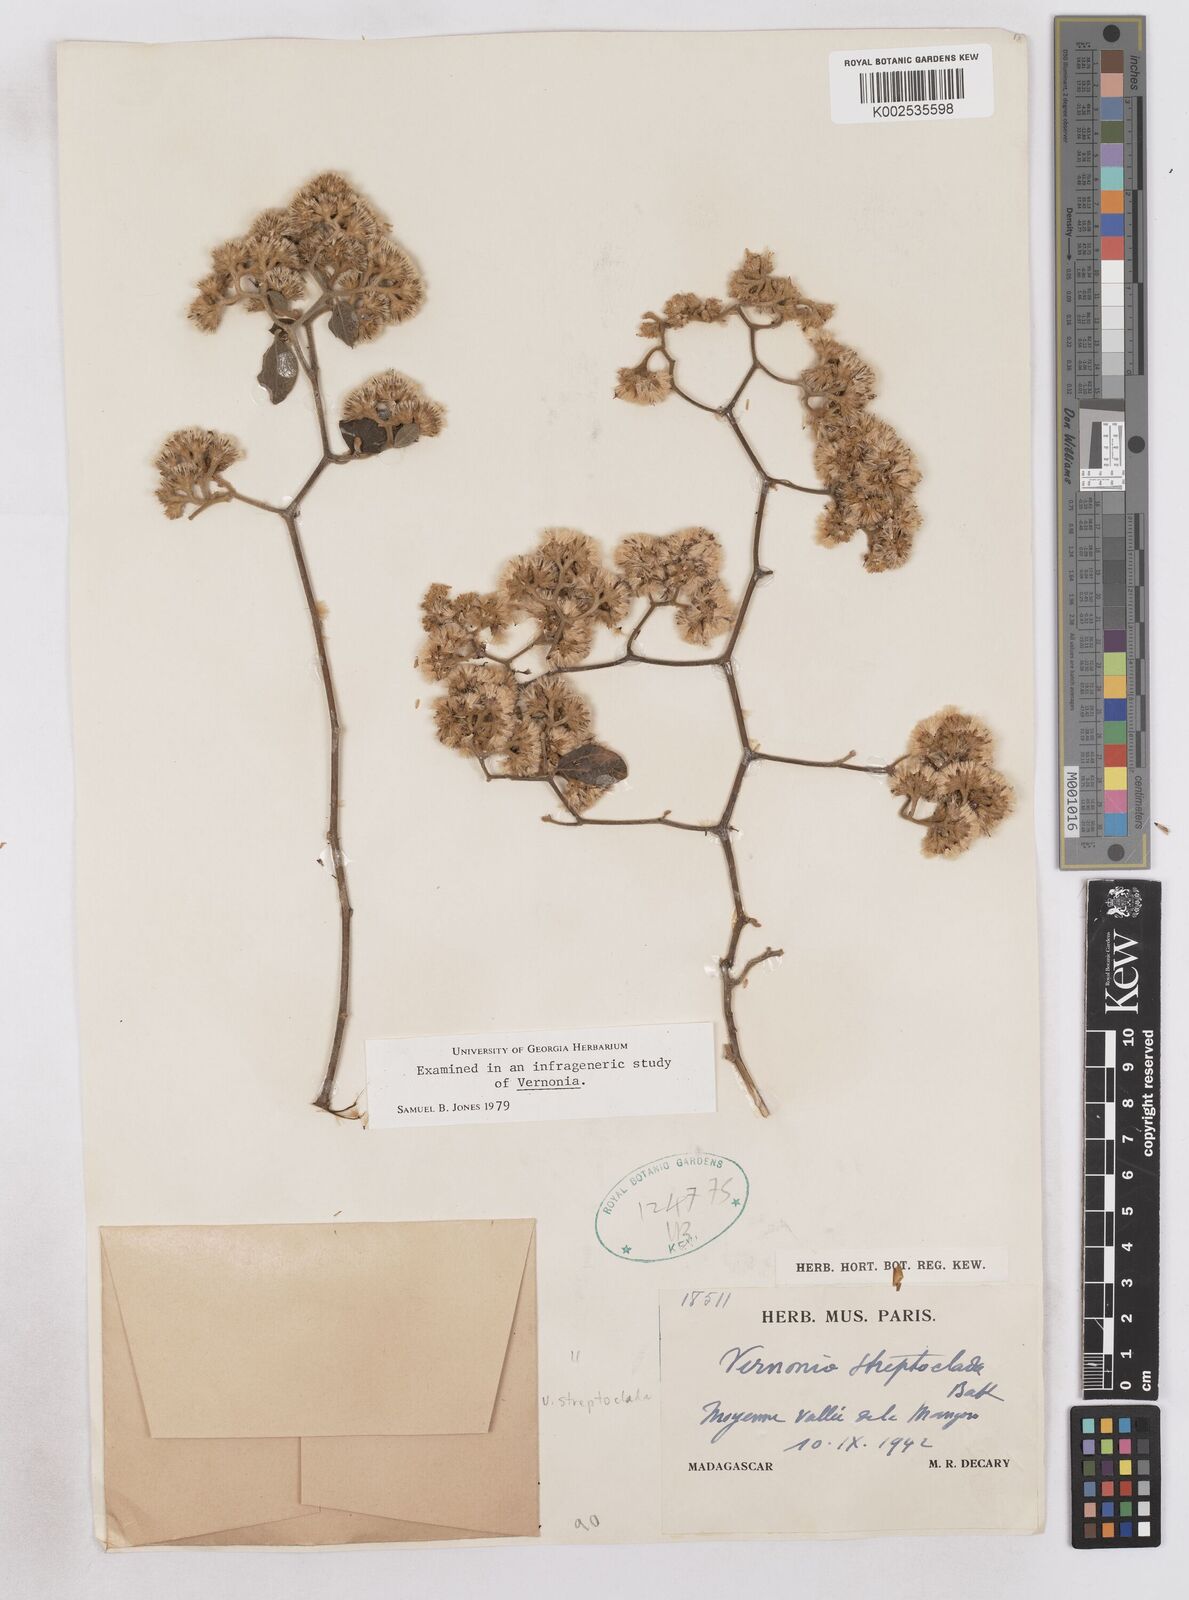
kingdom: Plantae
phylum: Tracheophyta
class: Magnoliopsida
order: Asterales
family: Asteraceae
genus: Distephanus
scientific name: Distephanus streptocladus
